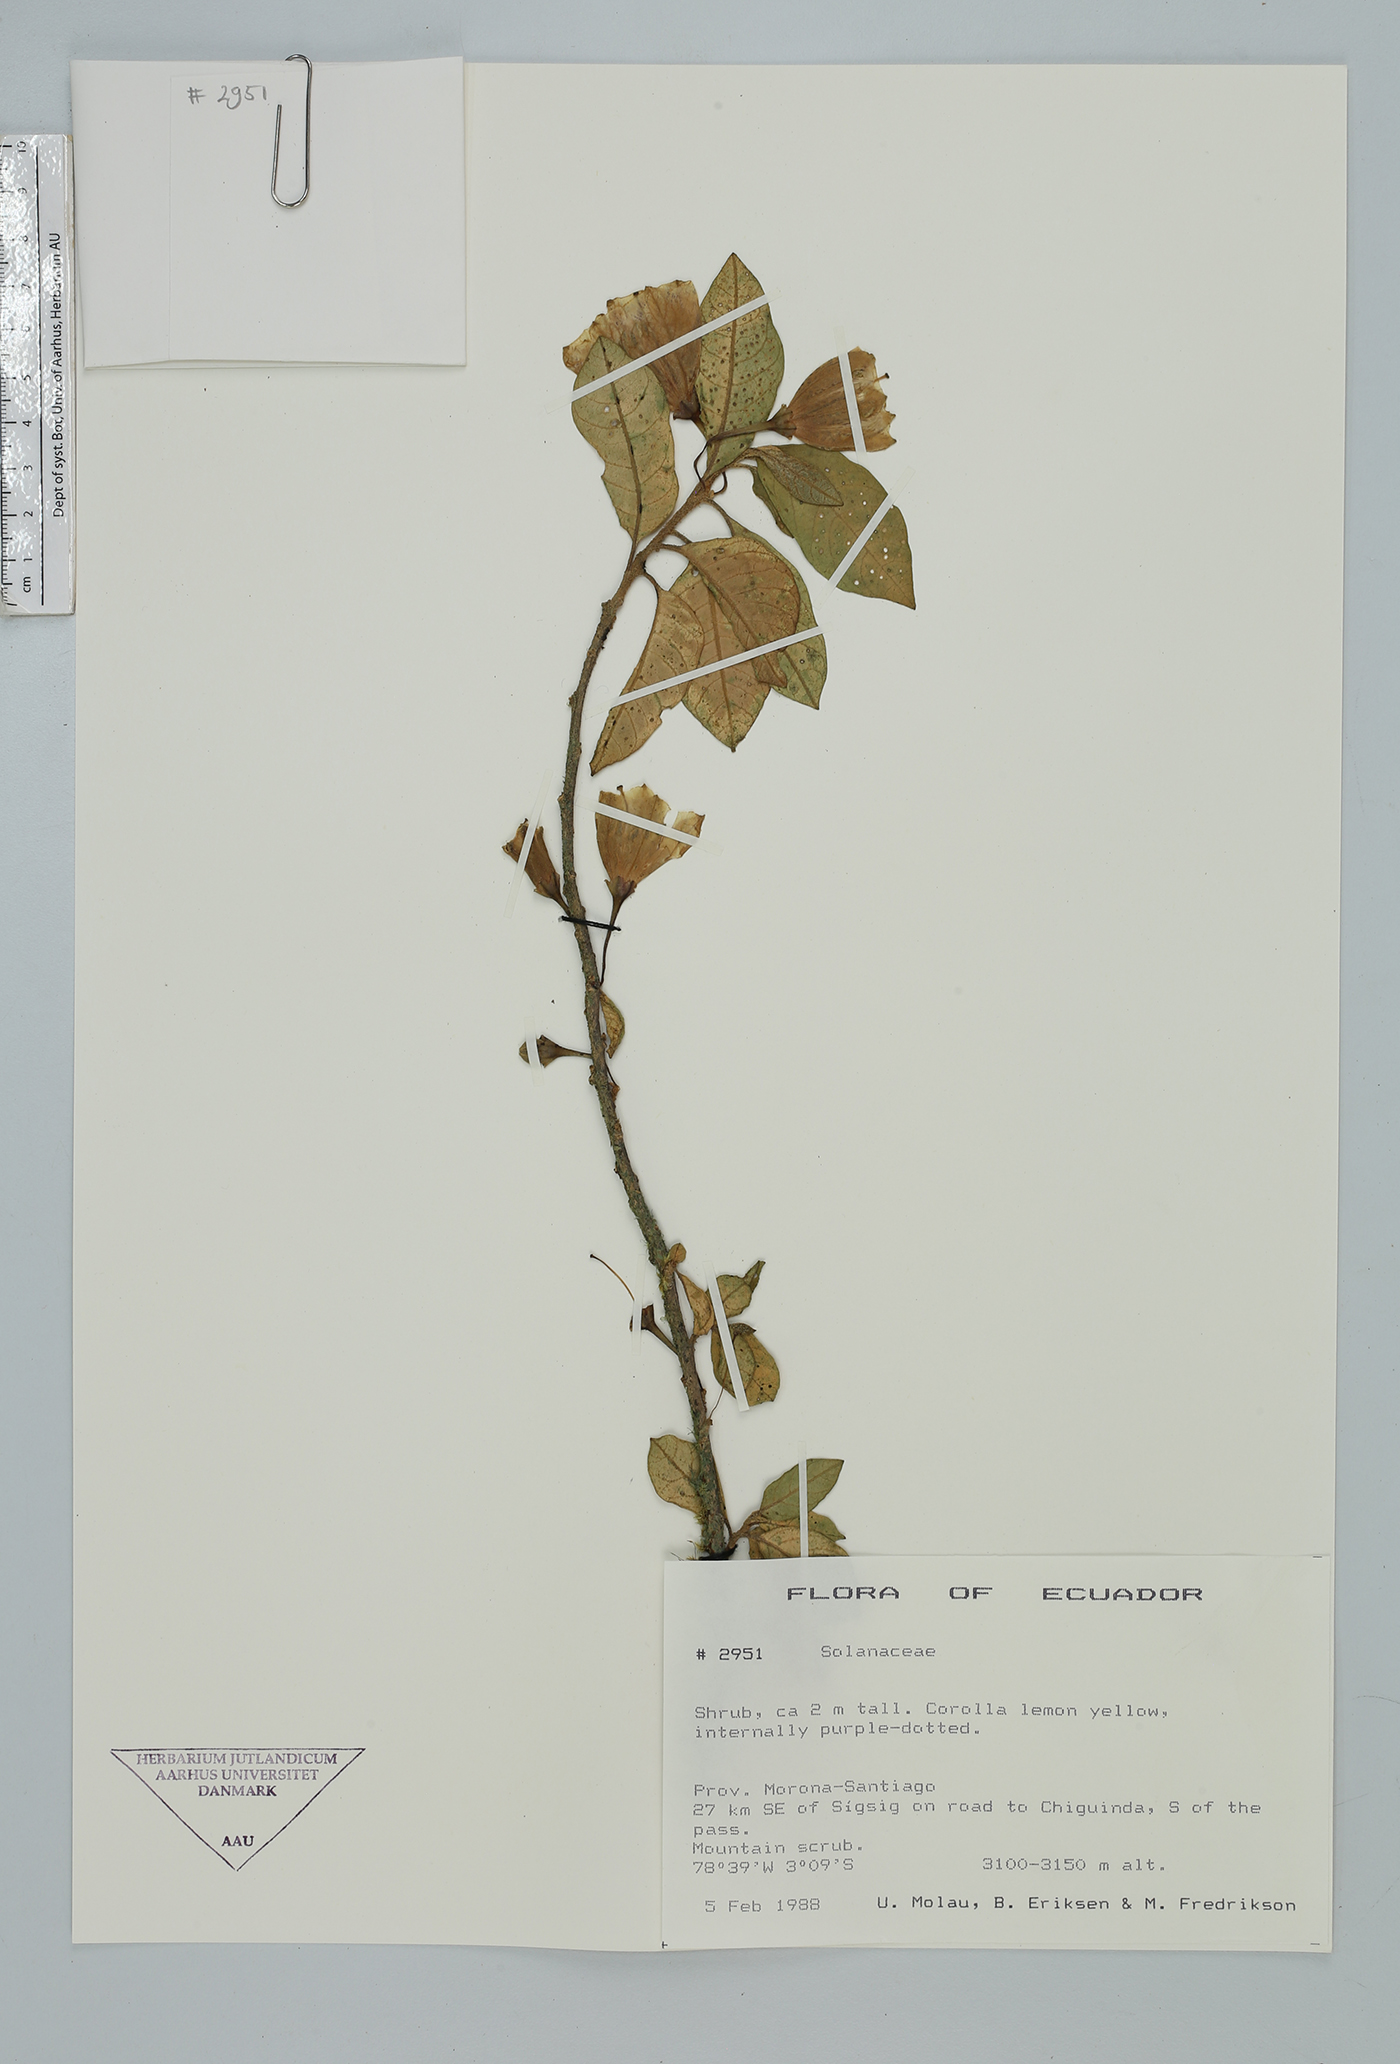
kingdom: Plantae
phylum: Tracheophyta
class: Magnoliopsida
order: Solanales
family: Solanaceae
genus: Saracha
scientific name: Saracha punctata
